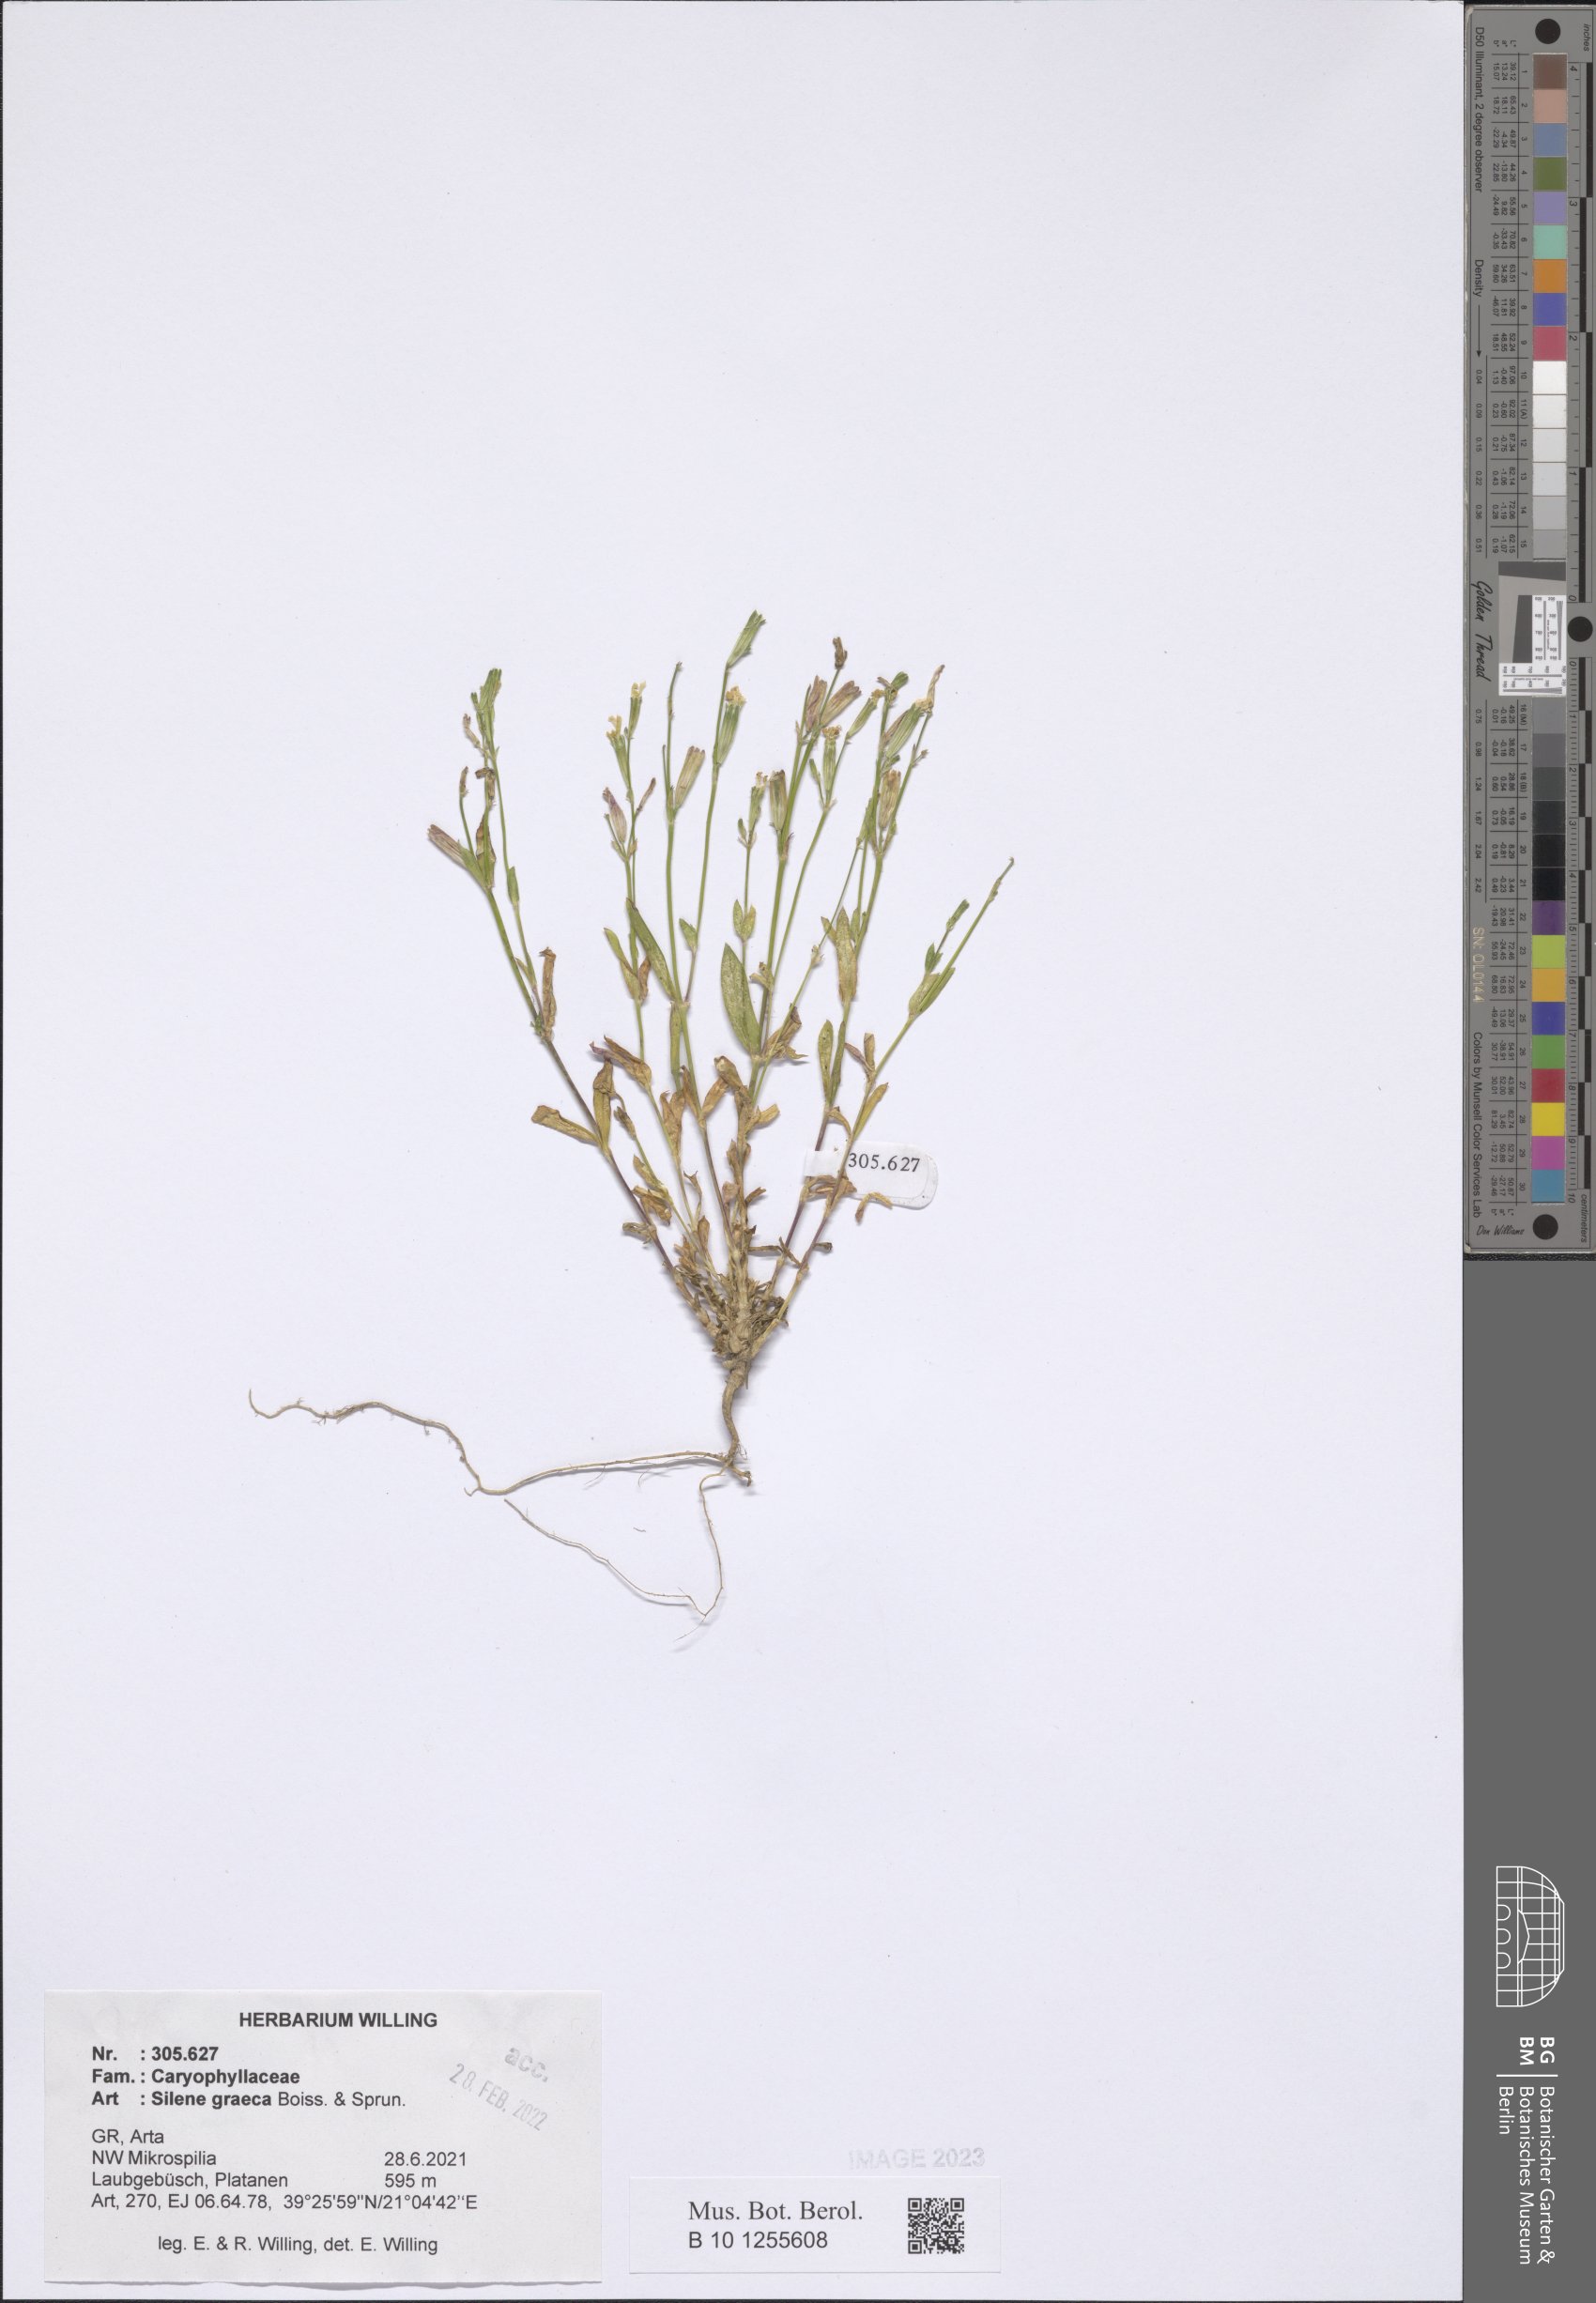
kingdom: Plantae
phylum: Tracheophyta
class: Magnoliopsida
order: Caryophyllales
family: Caryophyllaceae
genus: Silene
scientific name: Silene graeca
